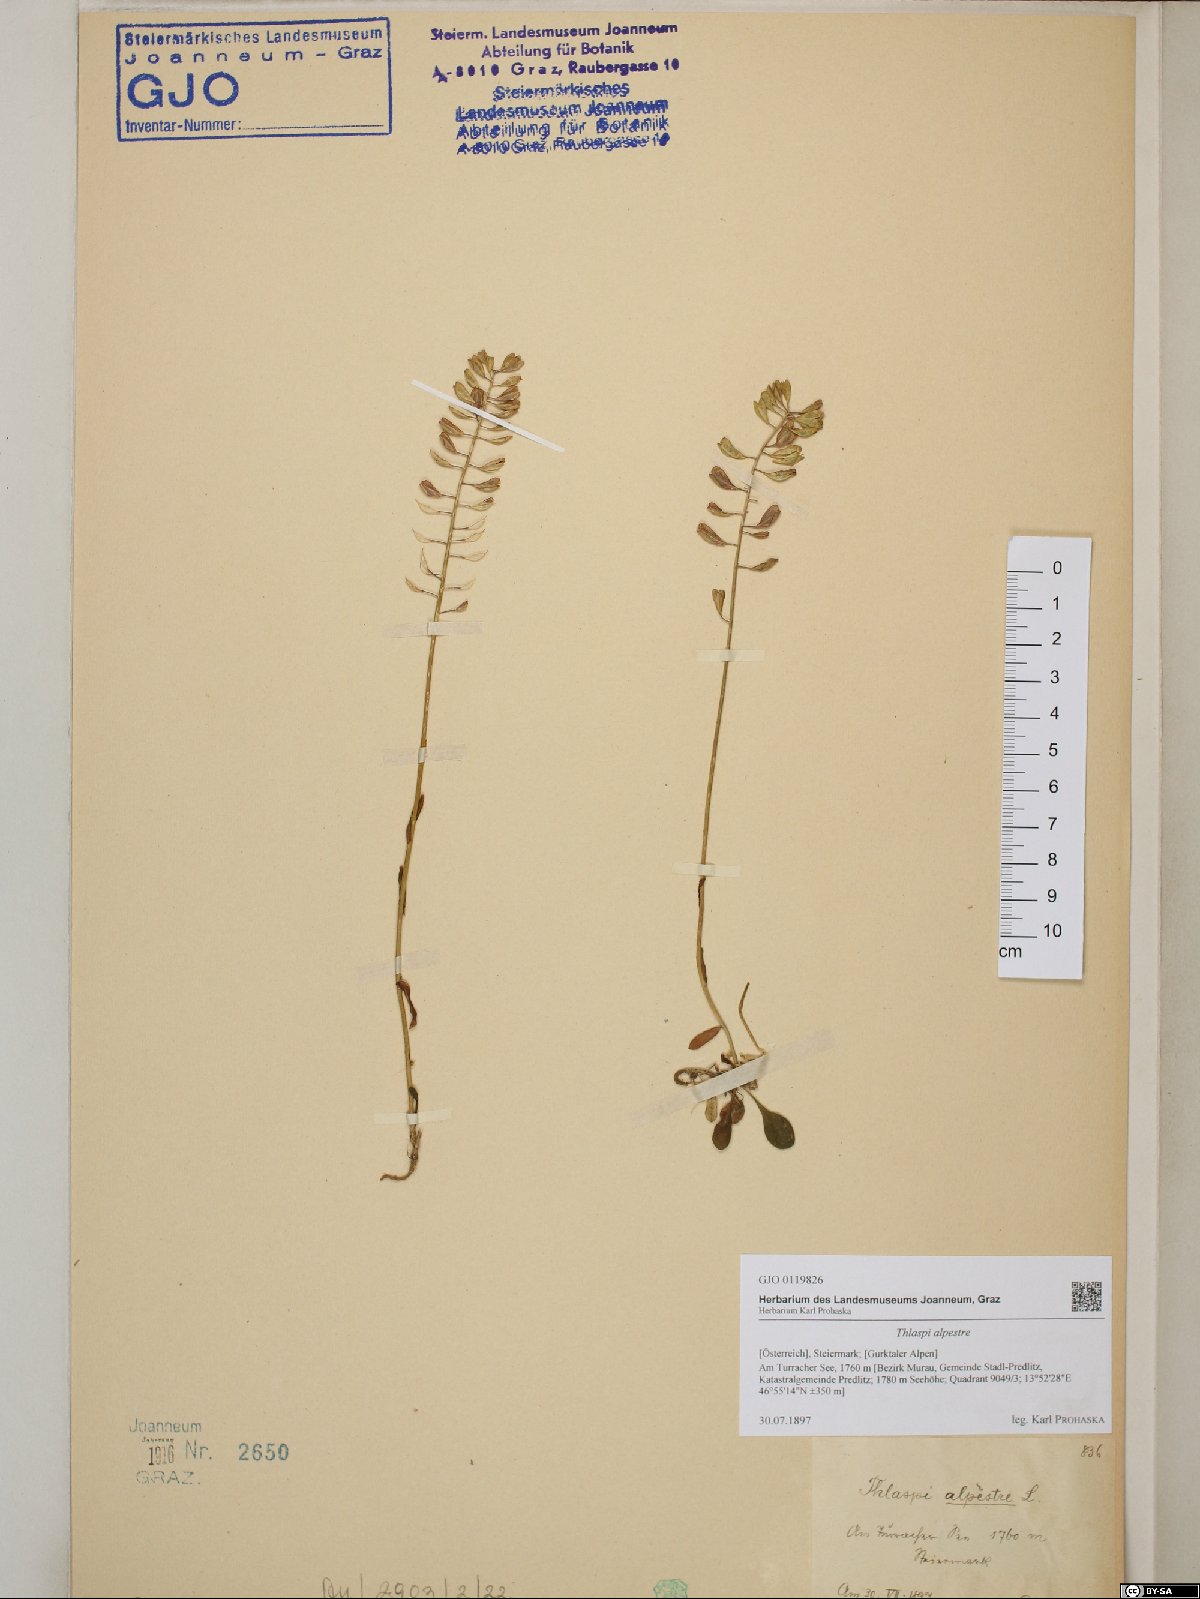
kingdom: Plantae
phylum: Tracheophyta
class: Magnoliopsida
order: Brassicales
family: Brassicaceae
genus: Noccaea
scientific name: Noccaea caerulescens
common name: Alpine pennycress
